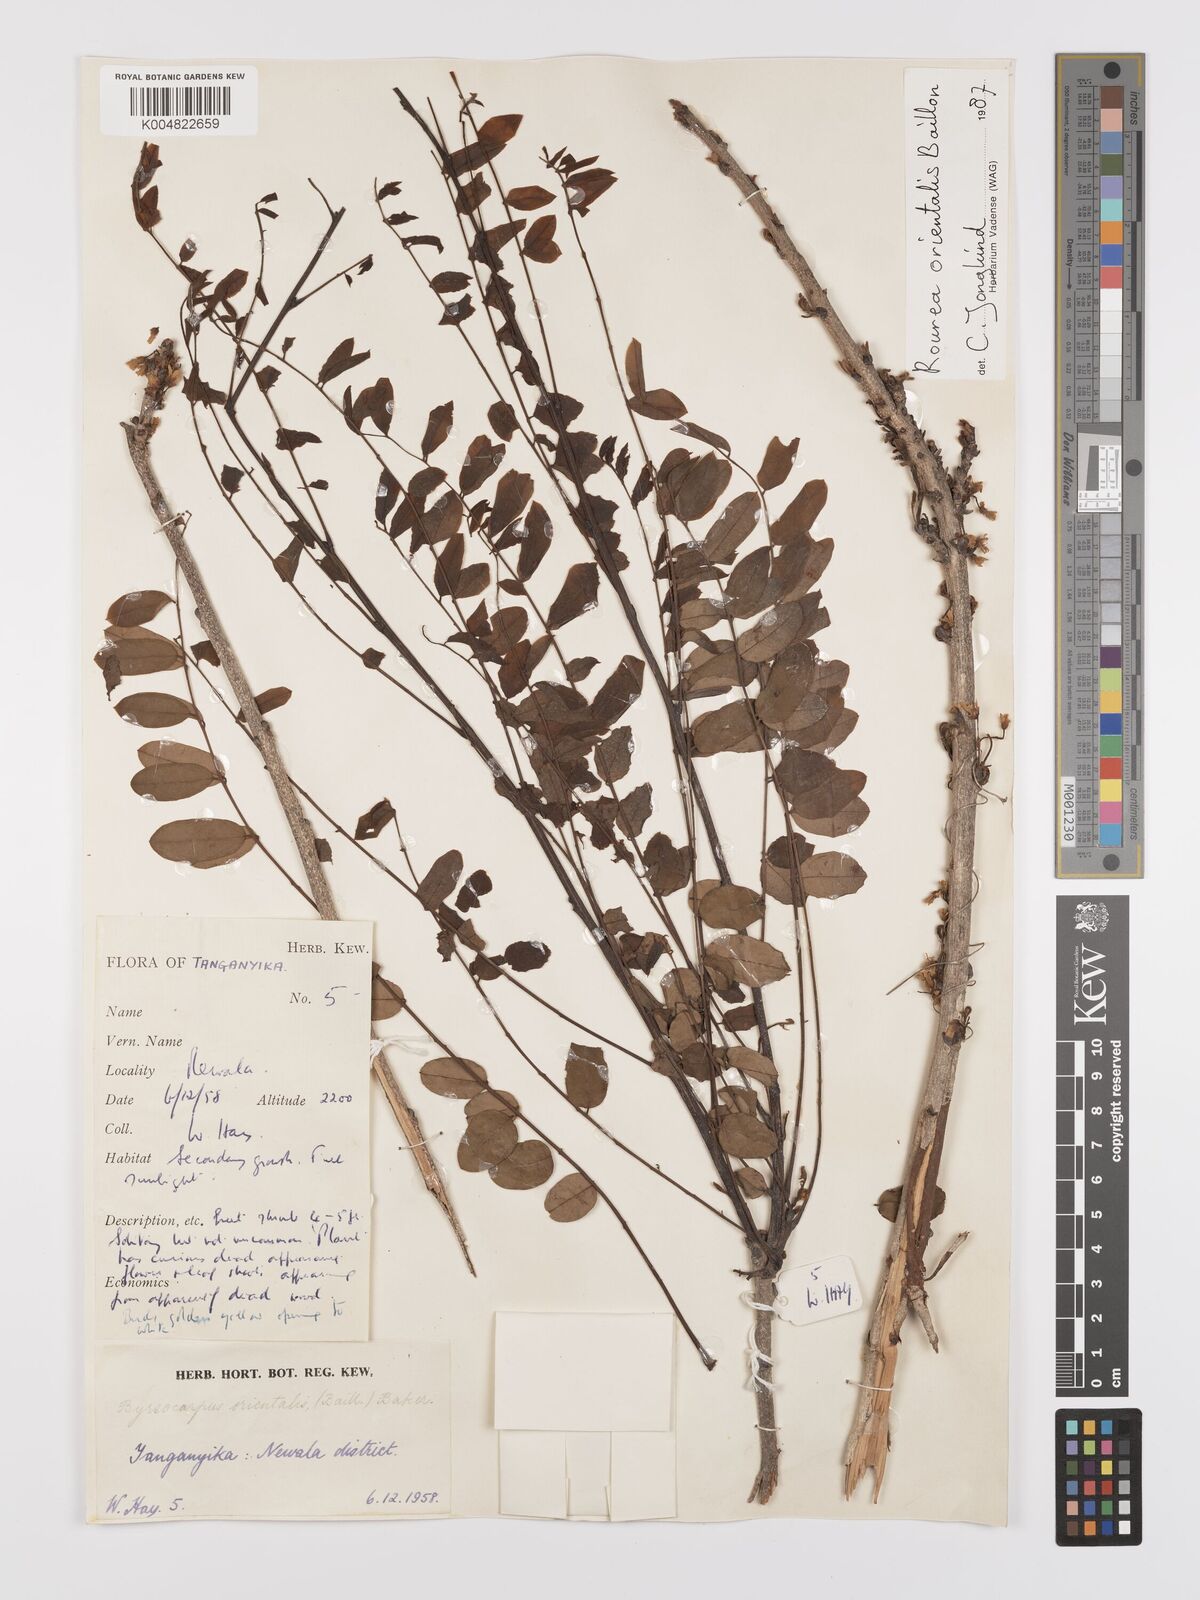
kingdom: Plantae
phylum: Tracheophyta
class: Magnoliopsida
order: Oxalidales
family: Connaraceae
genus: Rourea
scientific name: Rourea orientalis
